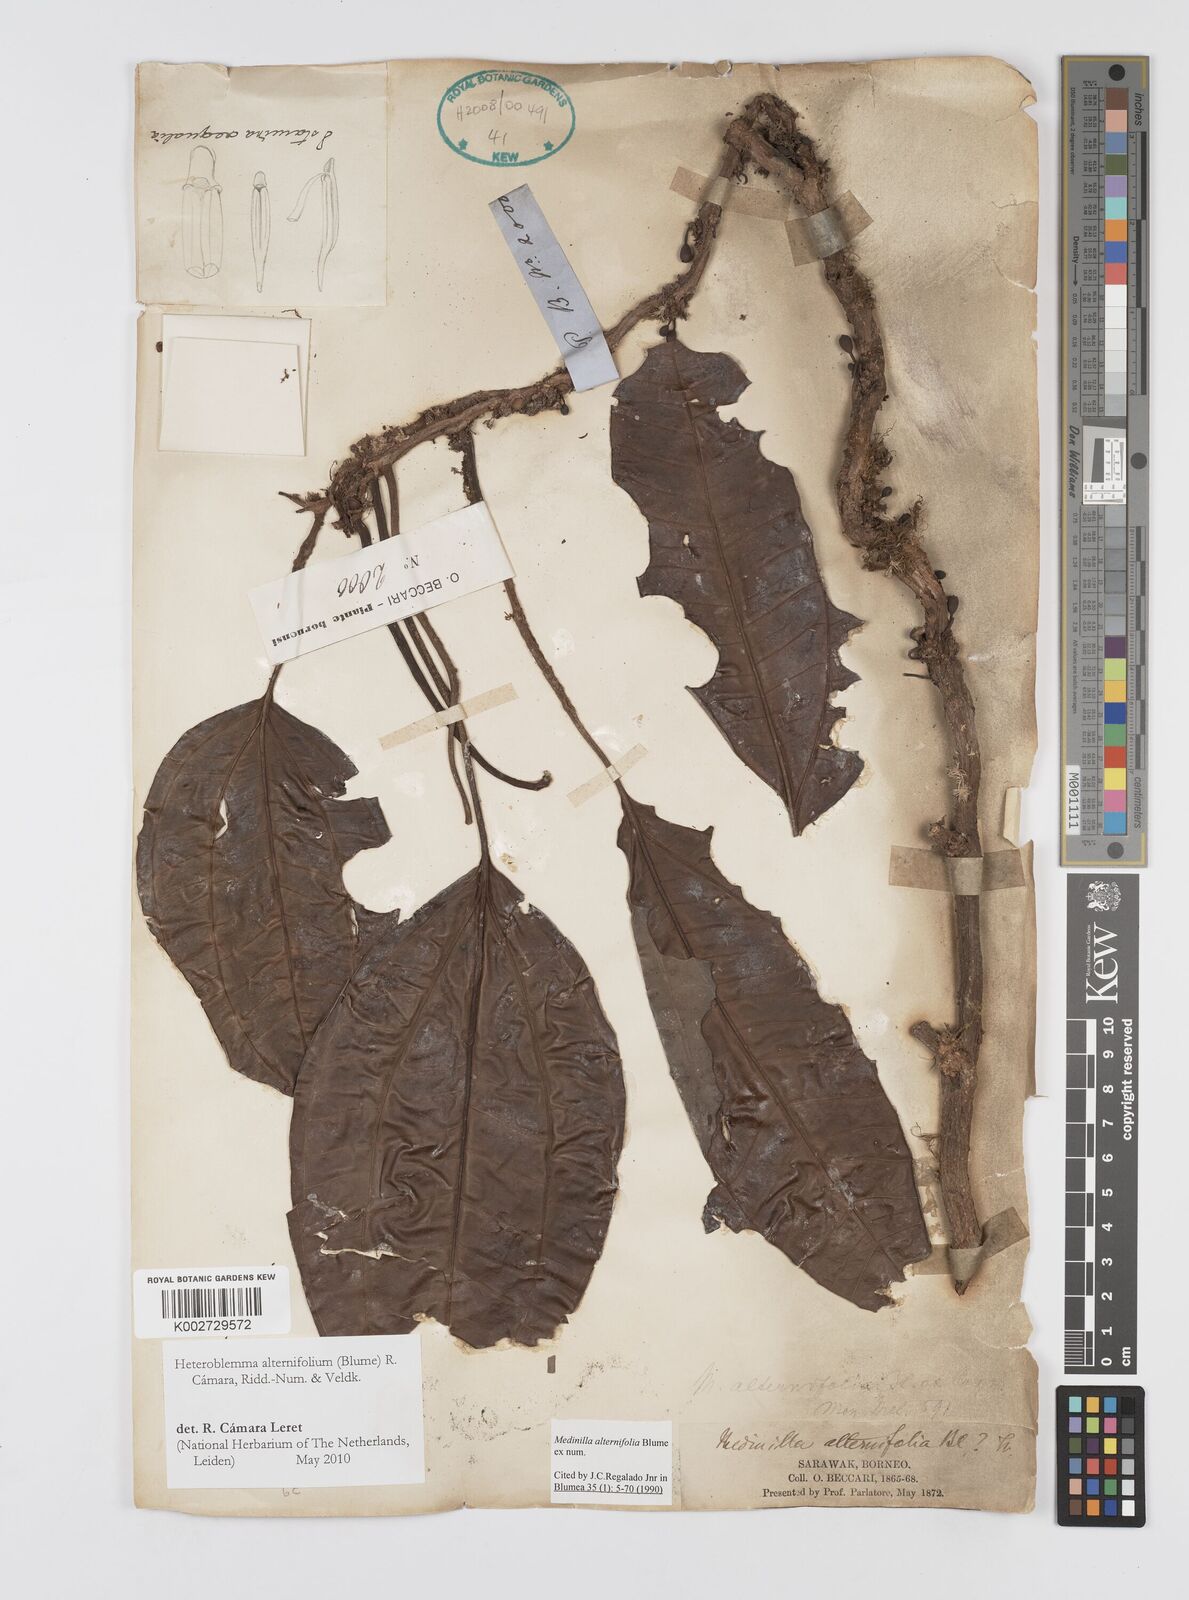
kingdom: Plantae
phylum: Tracheophyta
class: Magnoliopsida
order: Myrtales
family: Melastomataceae
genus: Heteroblemma
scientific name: Heteroblemma alternifolium
